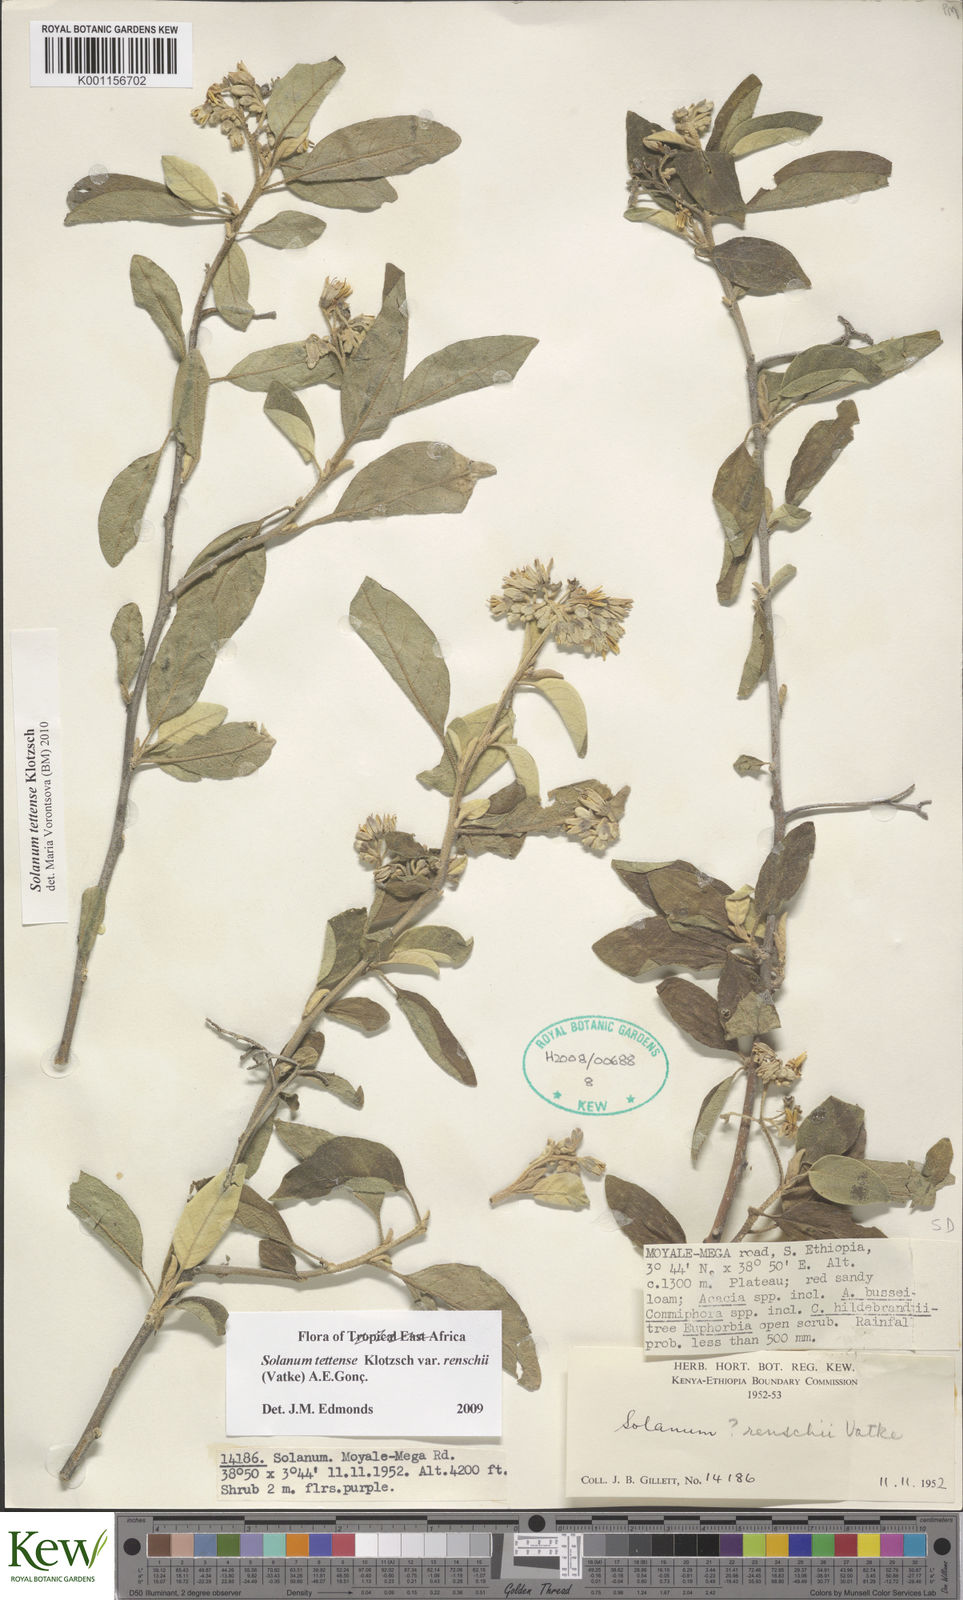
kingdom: Plantae
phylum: Tracheophyta
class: Magnoliopsida
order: Solanales
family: Solanaceae
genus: Solanum
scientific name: Solanum tettense
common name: Mozambique bitter apple
